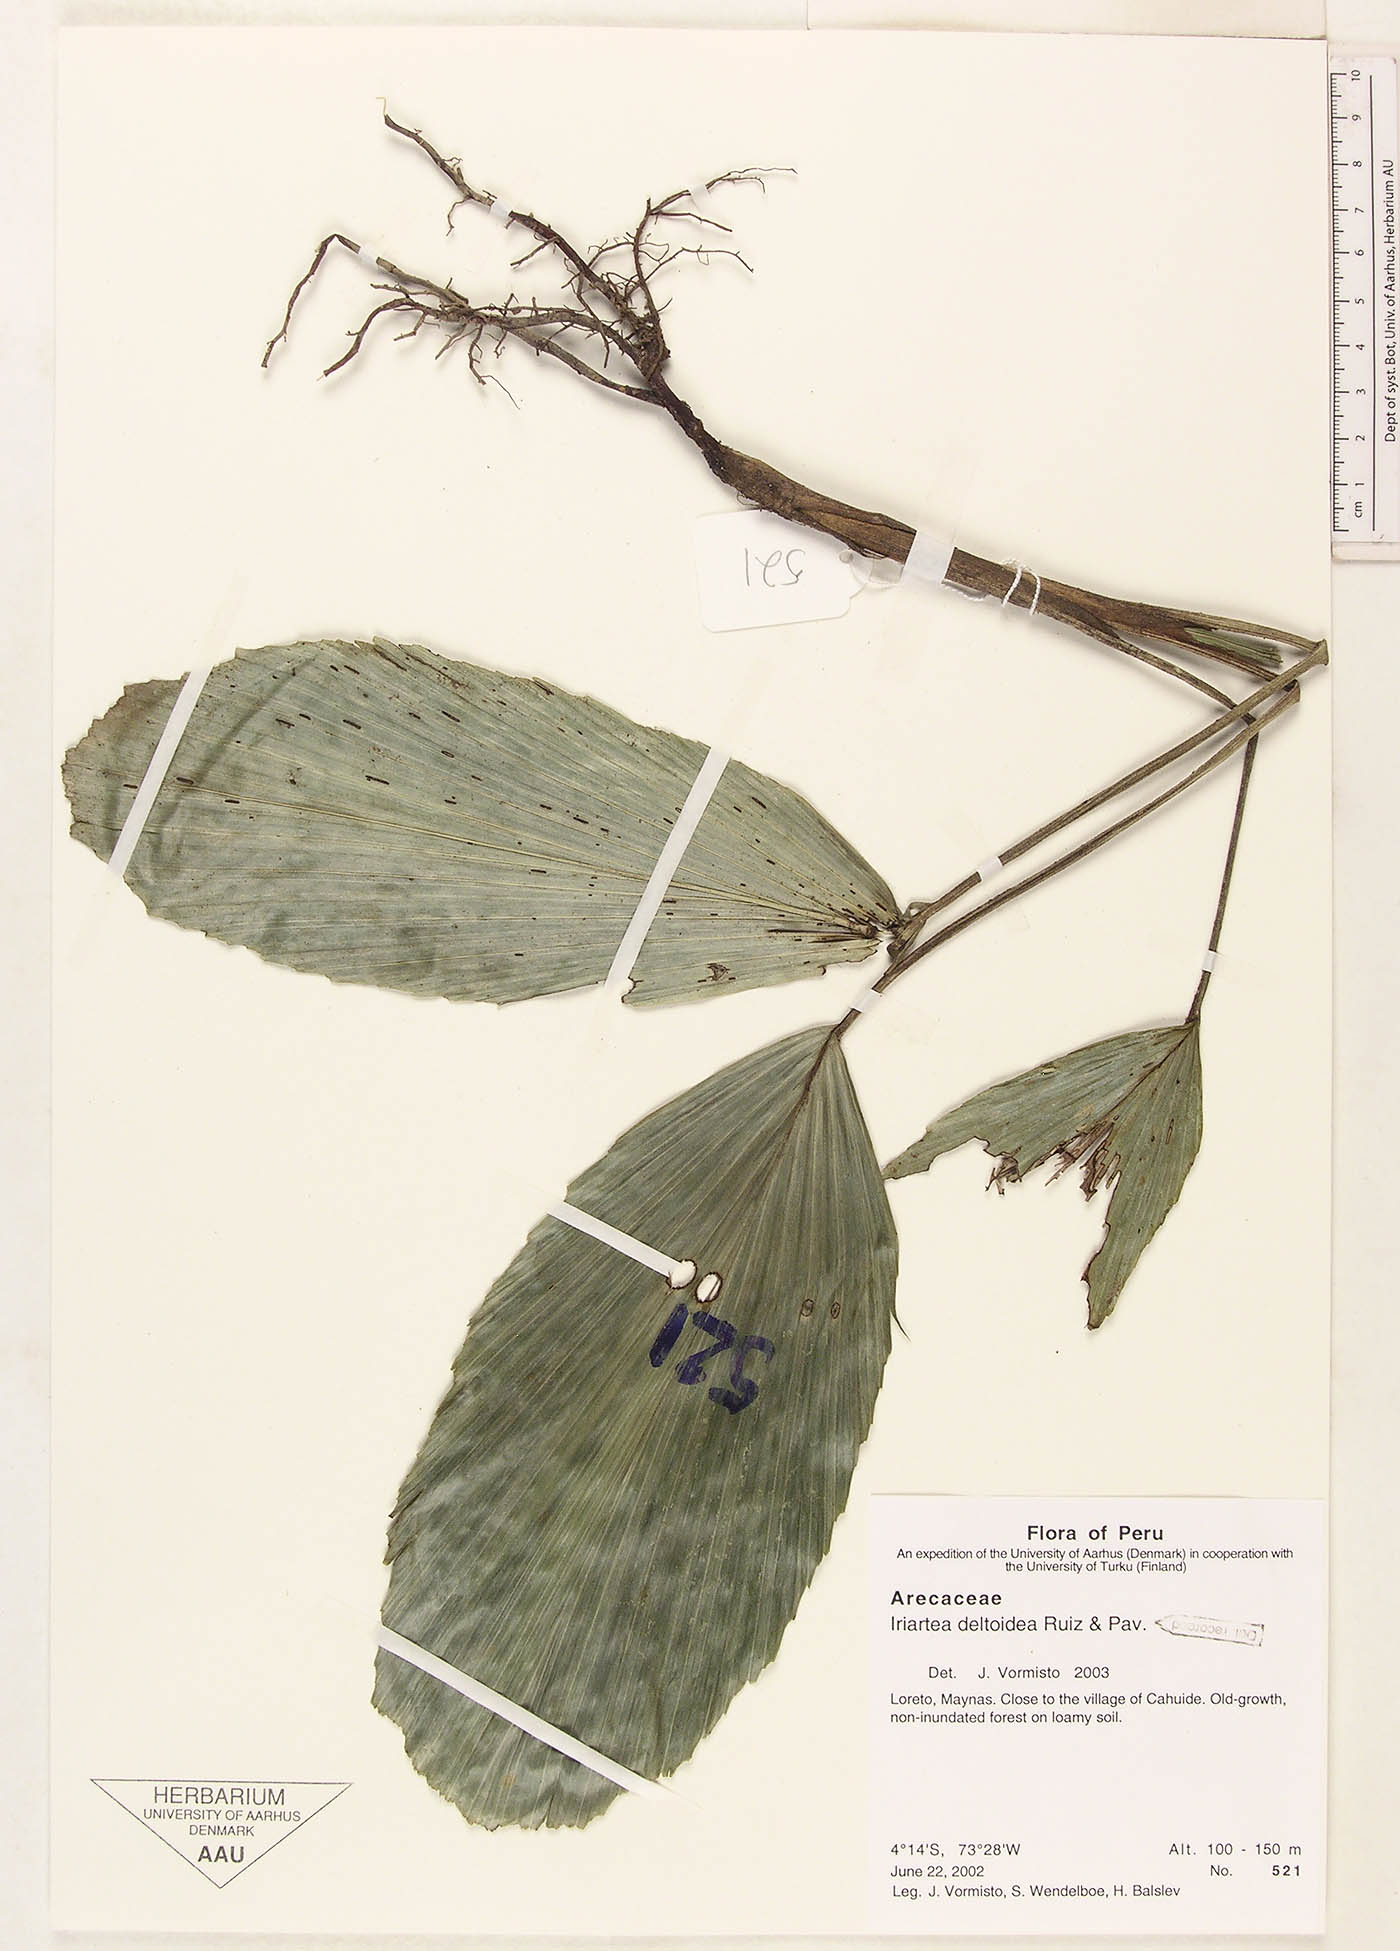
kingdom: Plantae
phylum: Tracheophyta
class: Liliopsida
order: Arecales
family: Arecaceae
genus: Iriartea
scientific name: Iriartea deltoidea
